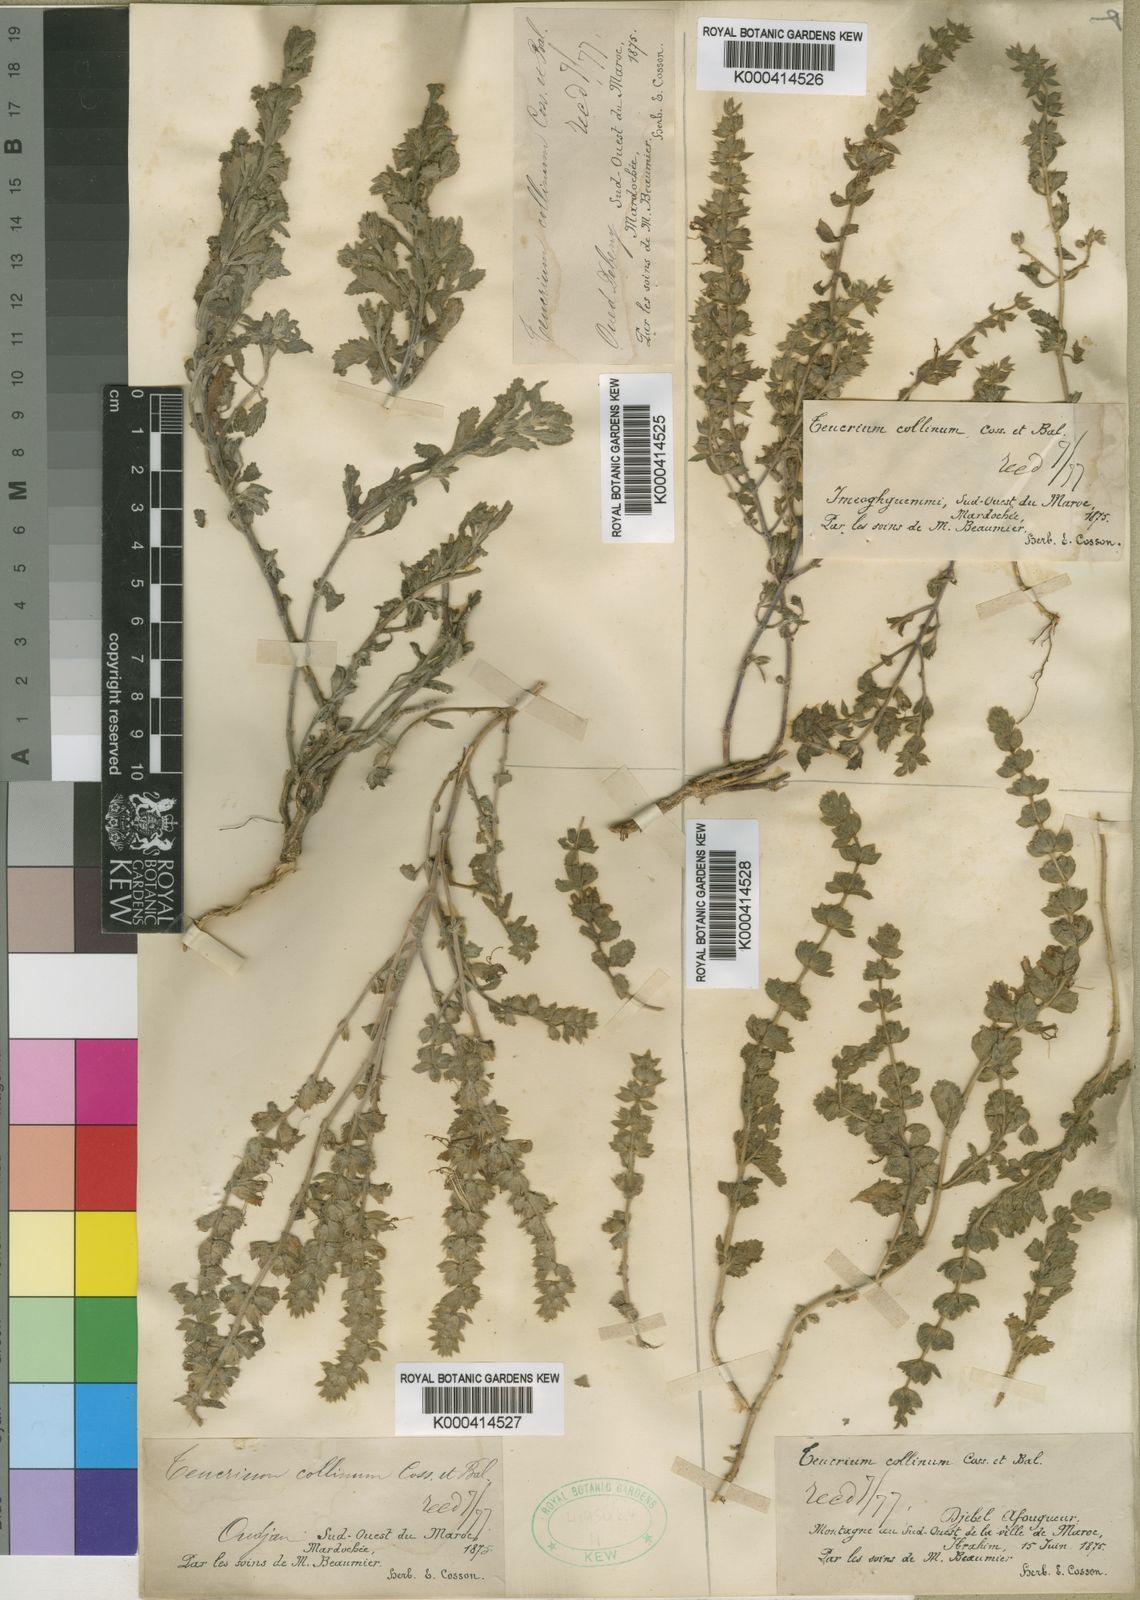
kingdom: Plantae
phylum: Tracheophyta
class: Magnoliopsida
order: Lamiales
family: Lamiaceae
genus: Teucrium
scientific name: Teucrium demnatense
